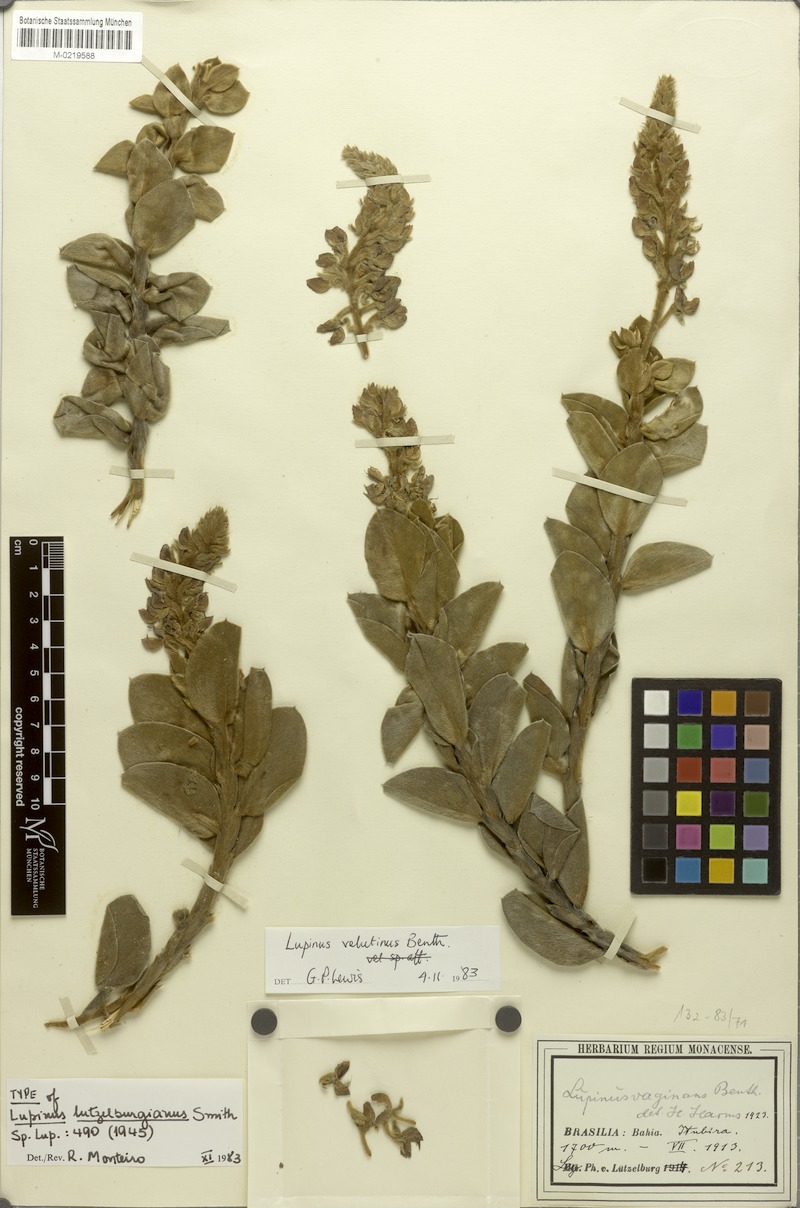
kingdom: Plantae
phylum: Tracheophyta
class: Magnoliopsida
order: Fabales
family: Fabaceae
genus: Lupinus
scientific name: Lupinus arenarius
